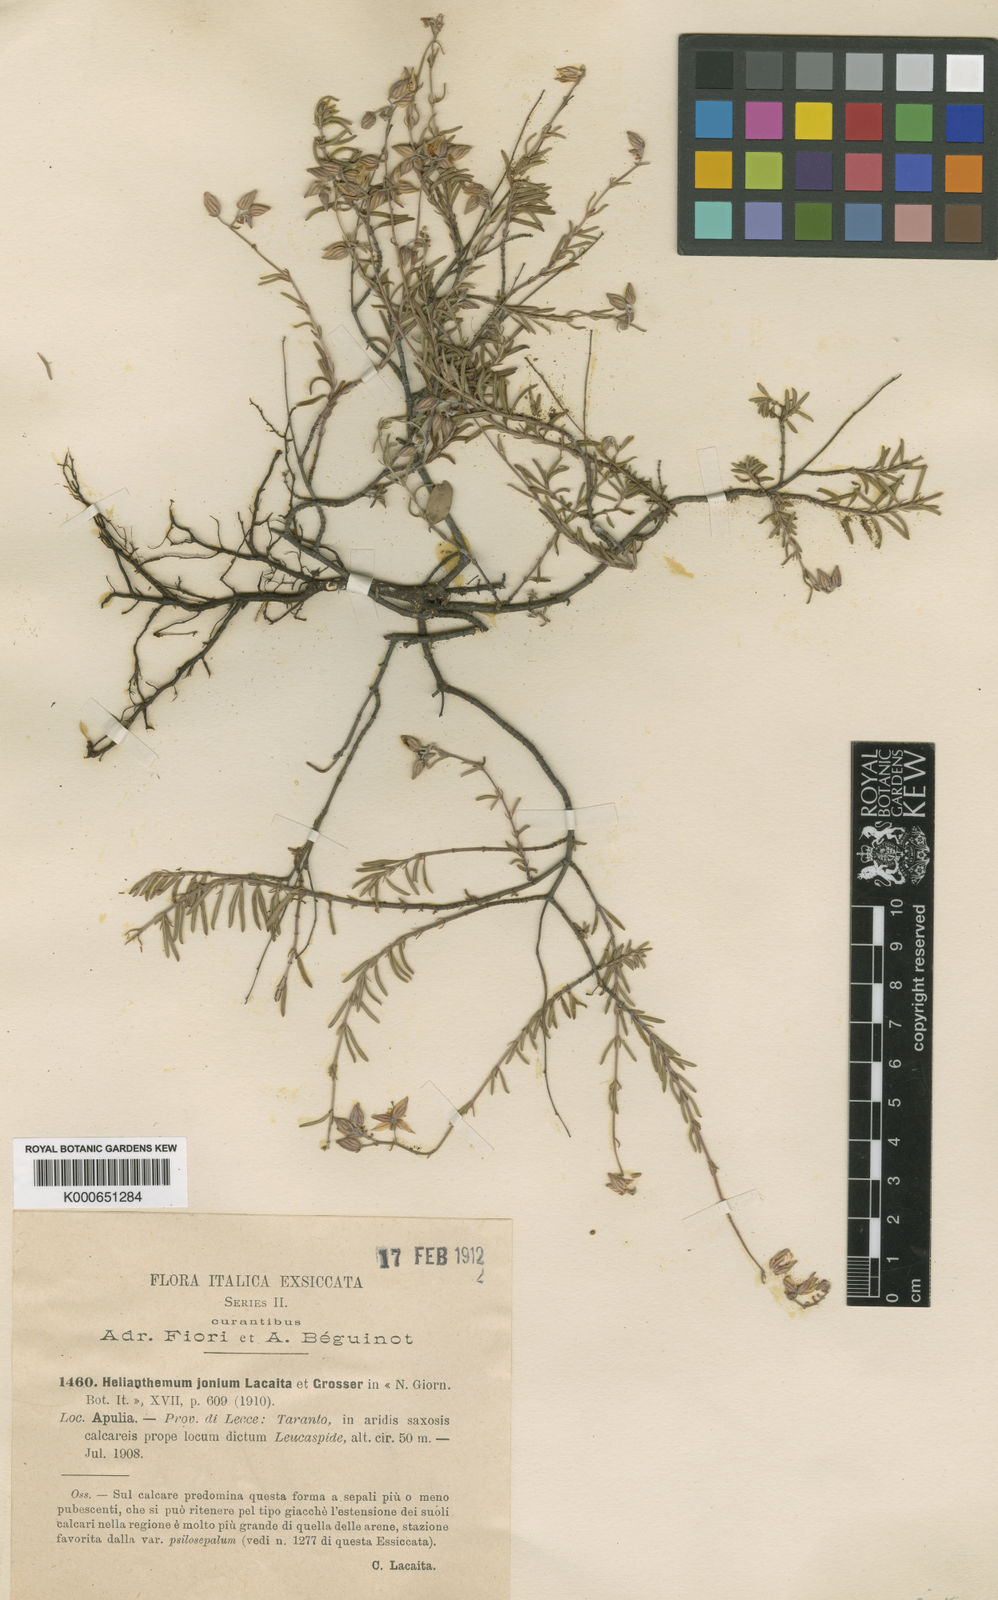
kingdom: Plantae
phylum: Tracheophyta
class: Magnoliopsida
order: Malvales
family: Cistaceae
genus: Helianthemum
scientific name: Helianthemum
